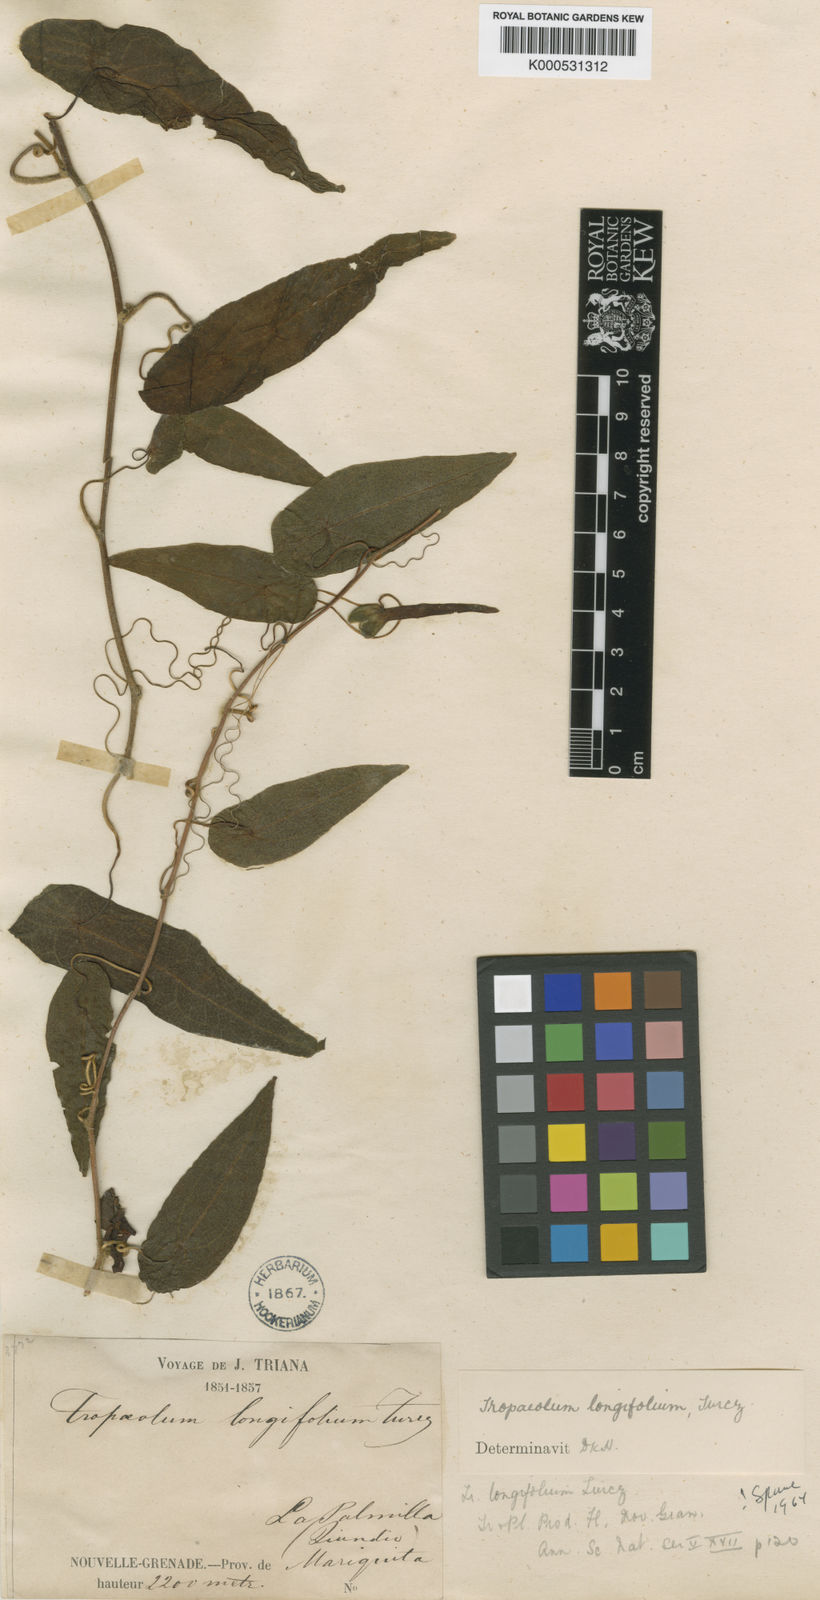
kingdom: Plantae
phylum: Tracheophyta
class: Magnoliopsida
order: Brassicales
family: Tropaeolaceae
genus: Tropaeolum
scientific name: Tropaeolum longifolium
